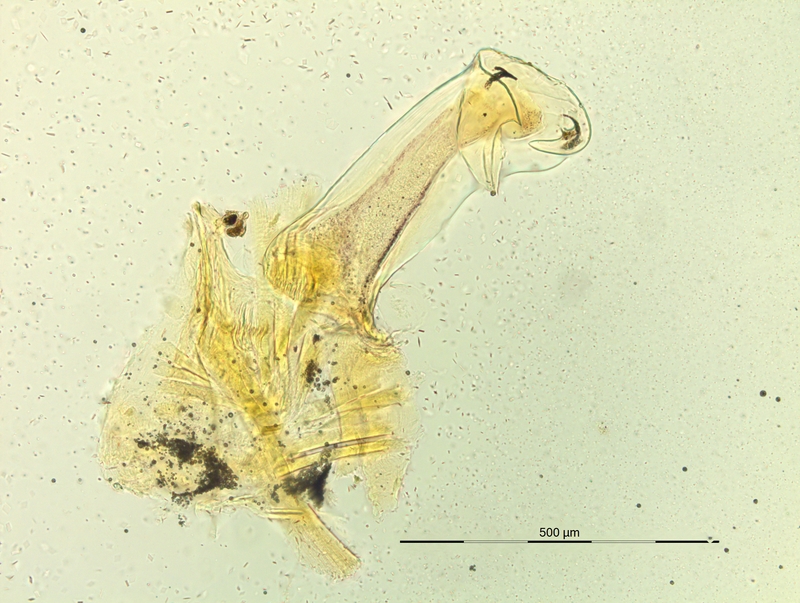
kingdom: Animalia
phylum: Arthropoda
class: Diplopoda
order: Chordeumatida
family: Craspedosomatidae
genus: Pyrgocyphosoma
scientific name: Pyrgocyphosoma dalmazzense
